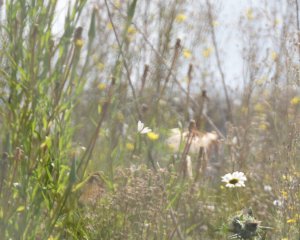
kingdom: Animalia
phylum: Arthropoda
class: Insecta
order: Lepidoptera
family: Pieridae
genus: Pieris
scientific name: Pieris rapae
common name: Cabbage White
